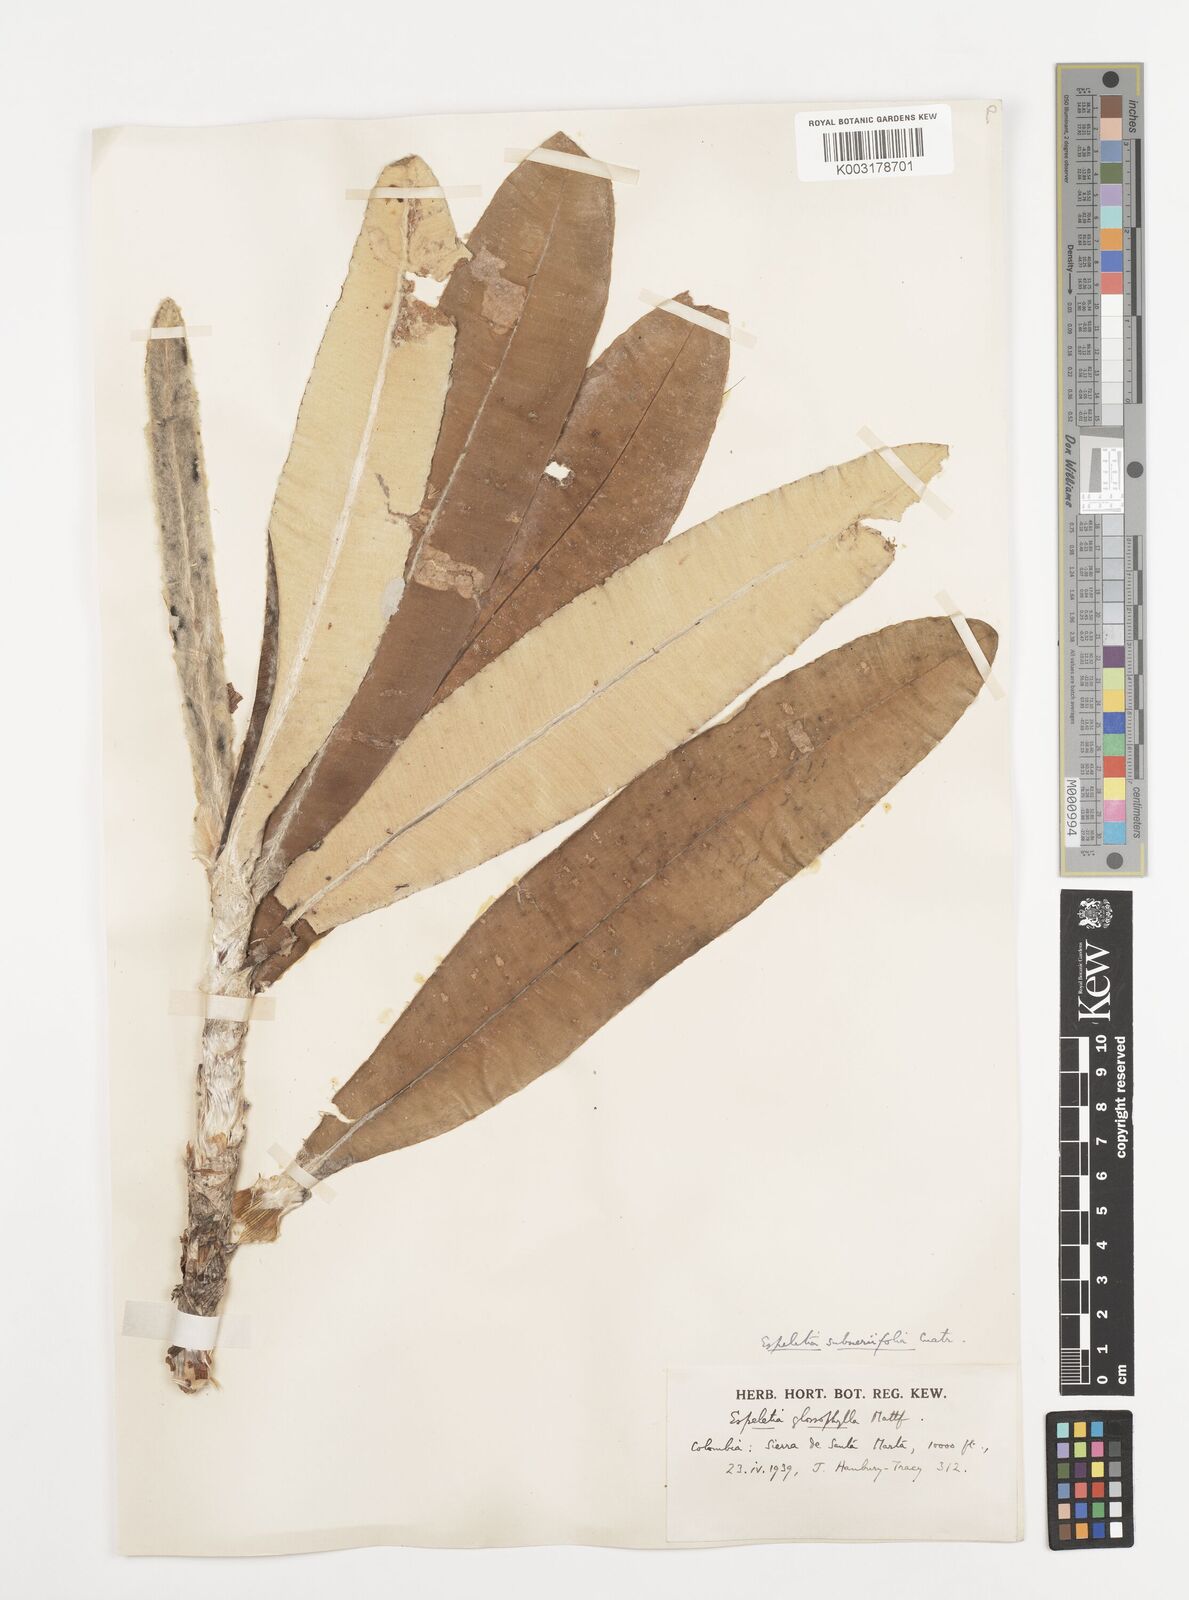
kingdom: Plantae
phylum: Tracheophyta
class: Magnoliopsida
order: Asterales
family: Asteraceae
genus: Espeletia
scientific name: Espeletia occulta
